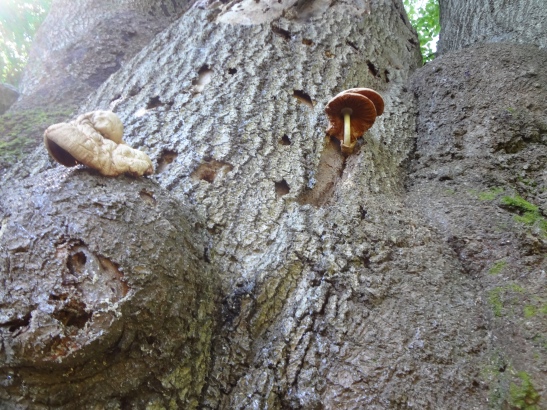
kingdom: Fungi
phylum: Basidiomycota
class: Agaricomycetes
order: Agaricales
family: Pluteaceae
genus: Volvariella
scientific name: Volvariella bombycina
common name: silkehåret posesvamp
